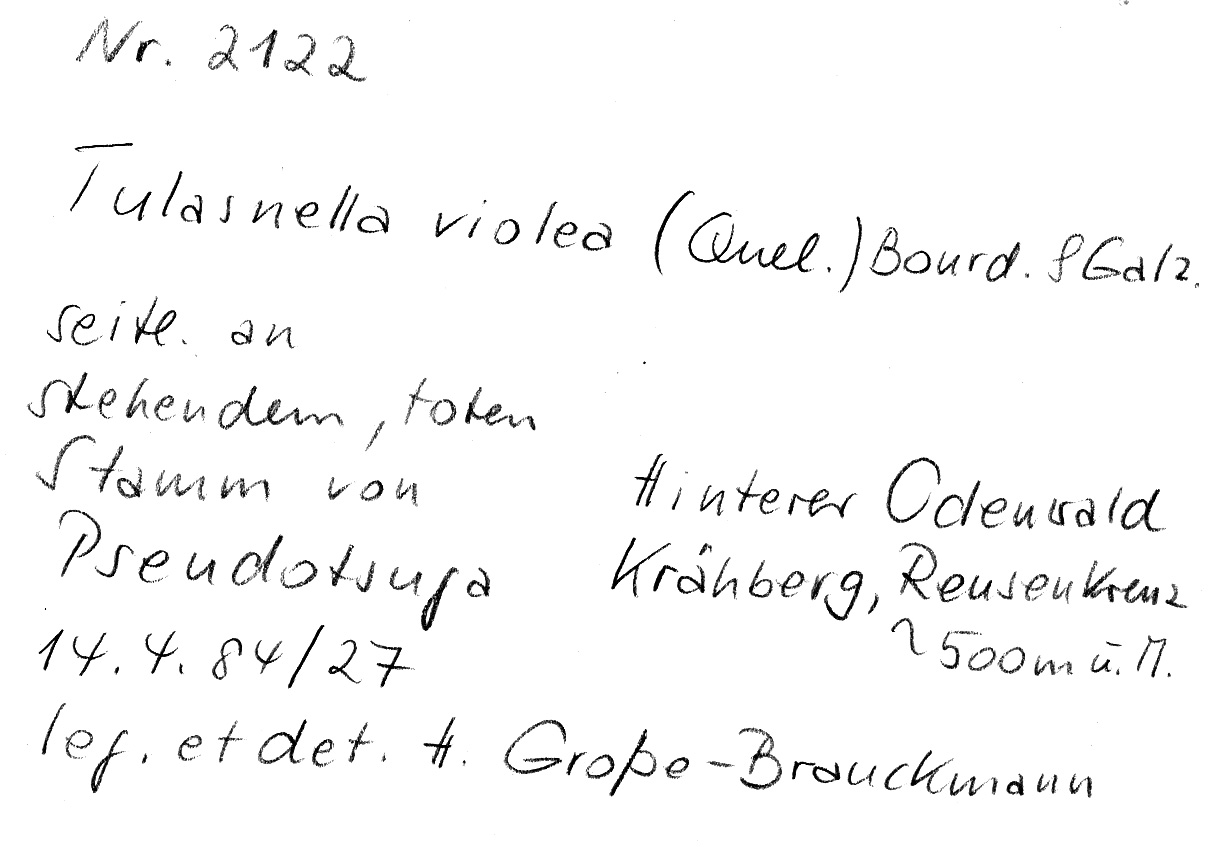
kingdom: Plantae
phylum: Tracheophyta
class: Pinopsida
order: Pinales
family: Pinaceae
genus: Pseudotsuga
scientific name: Pseudotsuga
